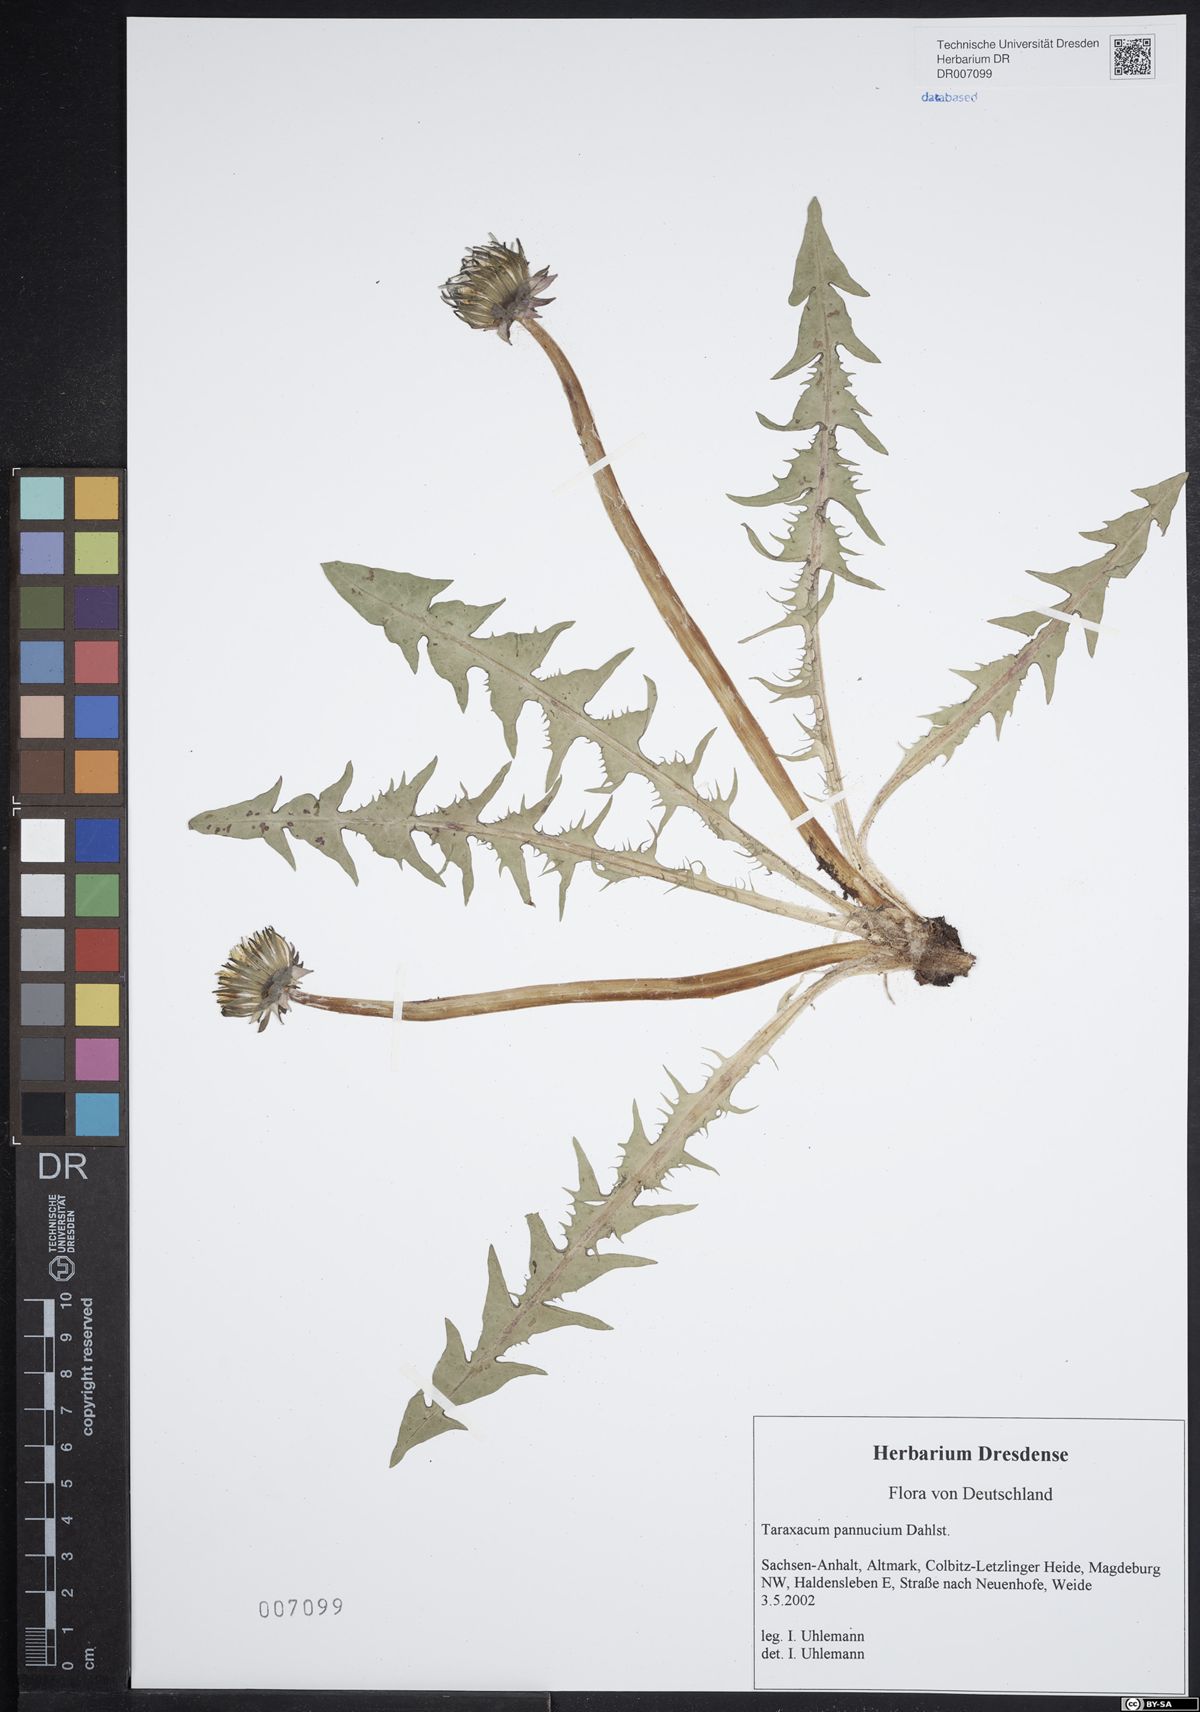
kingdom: Plantae
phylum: Tracheophyta
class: Magnoliopsida
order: Asterales
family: Asteraceae
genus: Taraxacum
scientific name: Taraxacum pannucium
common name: Green-stalked dandelion
